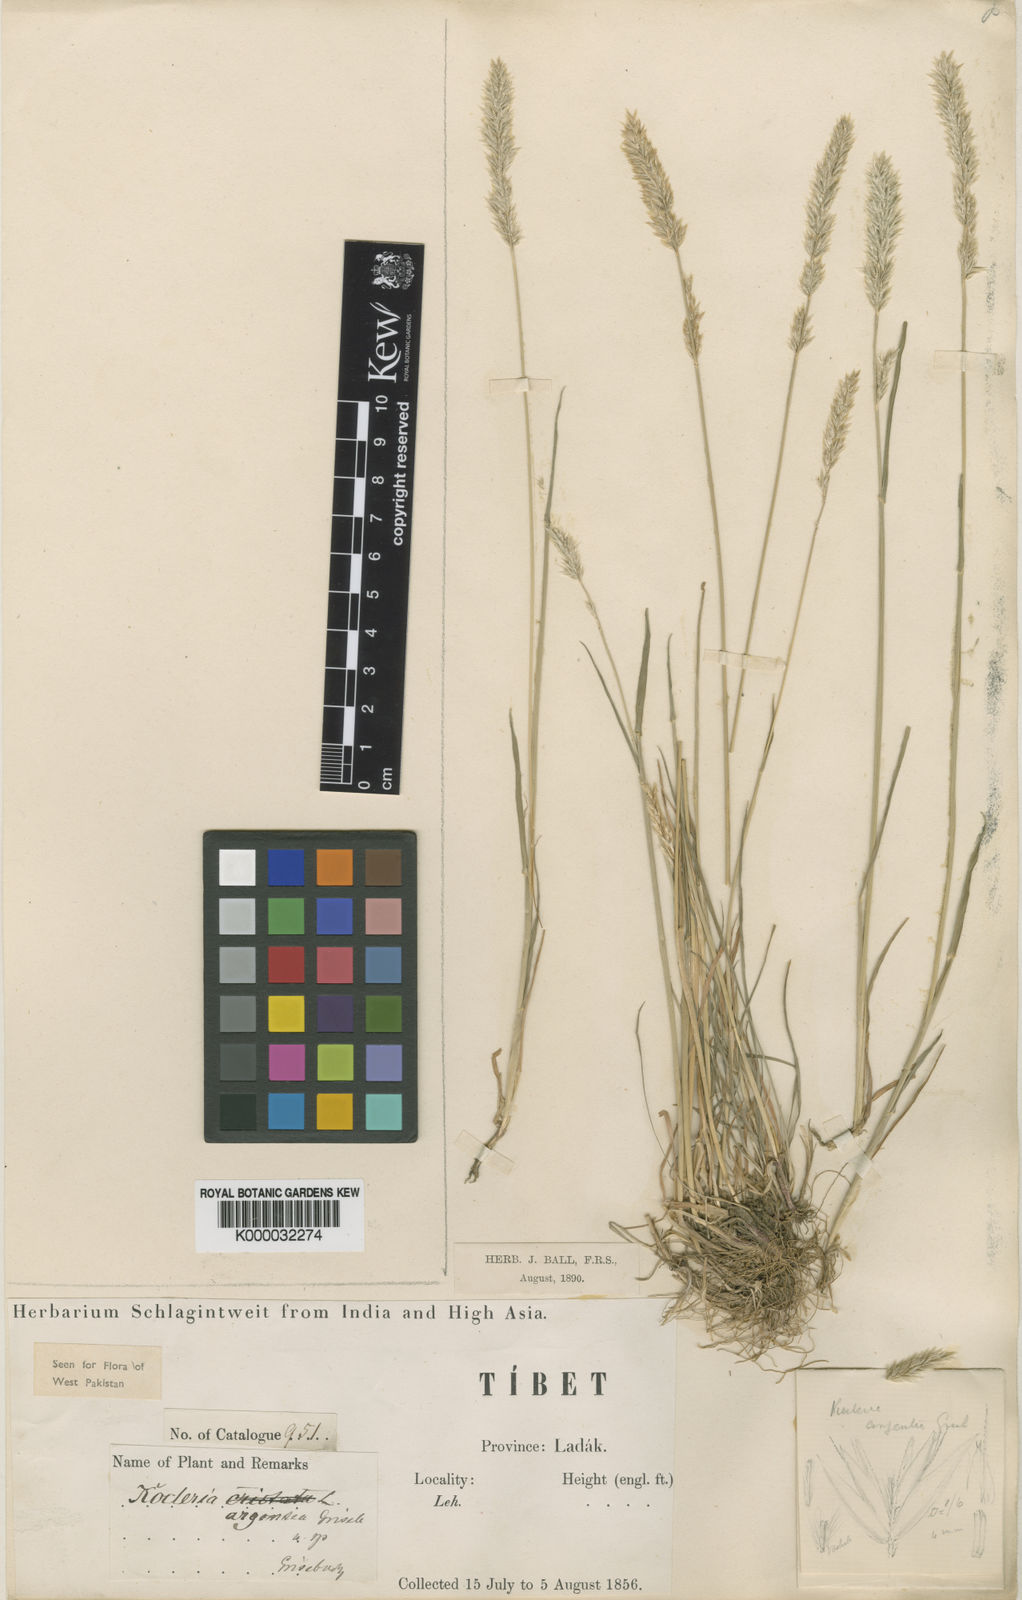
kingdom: Plantae
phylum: Tracheophyta
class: Liliopsida
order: Poales
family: Poaceae
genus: Koeleria
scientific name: Koeleria argentea
